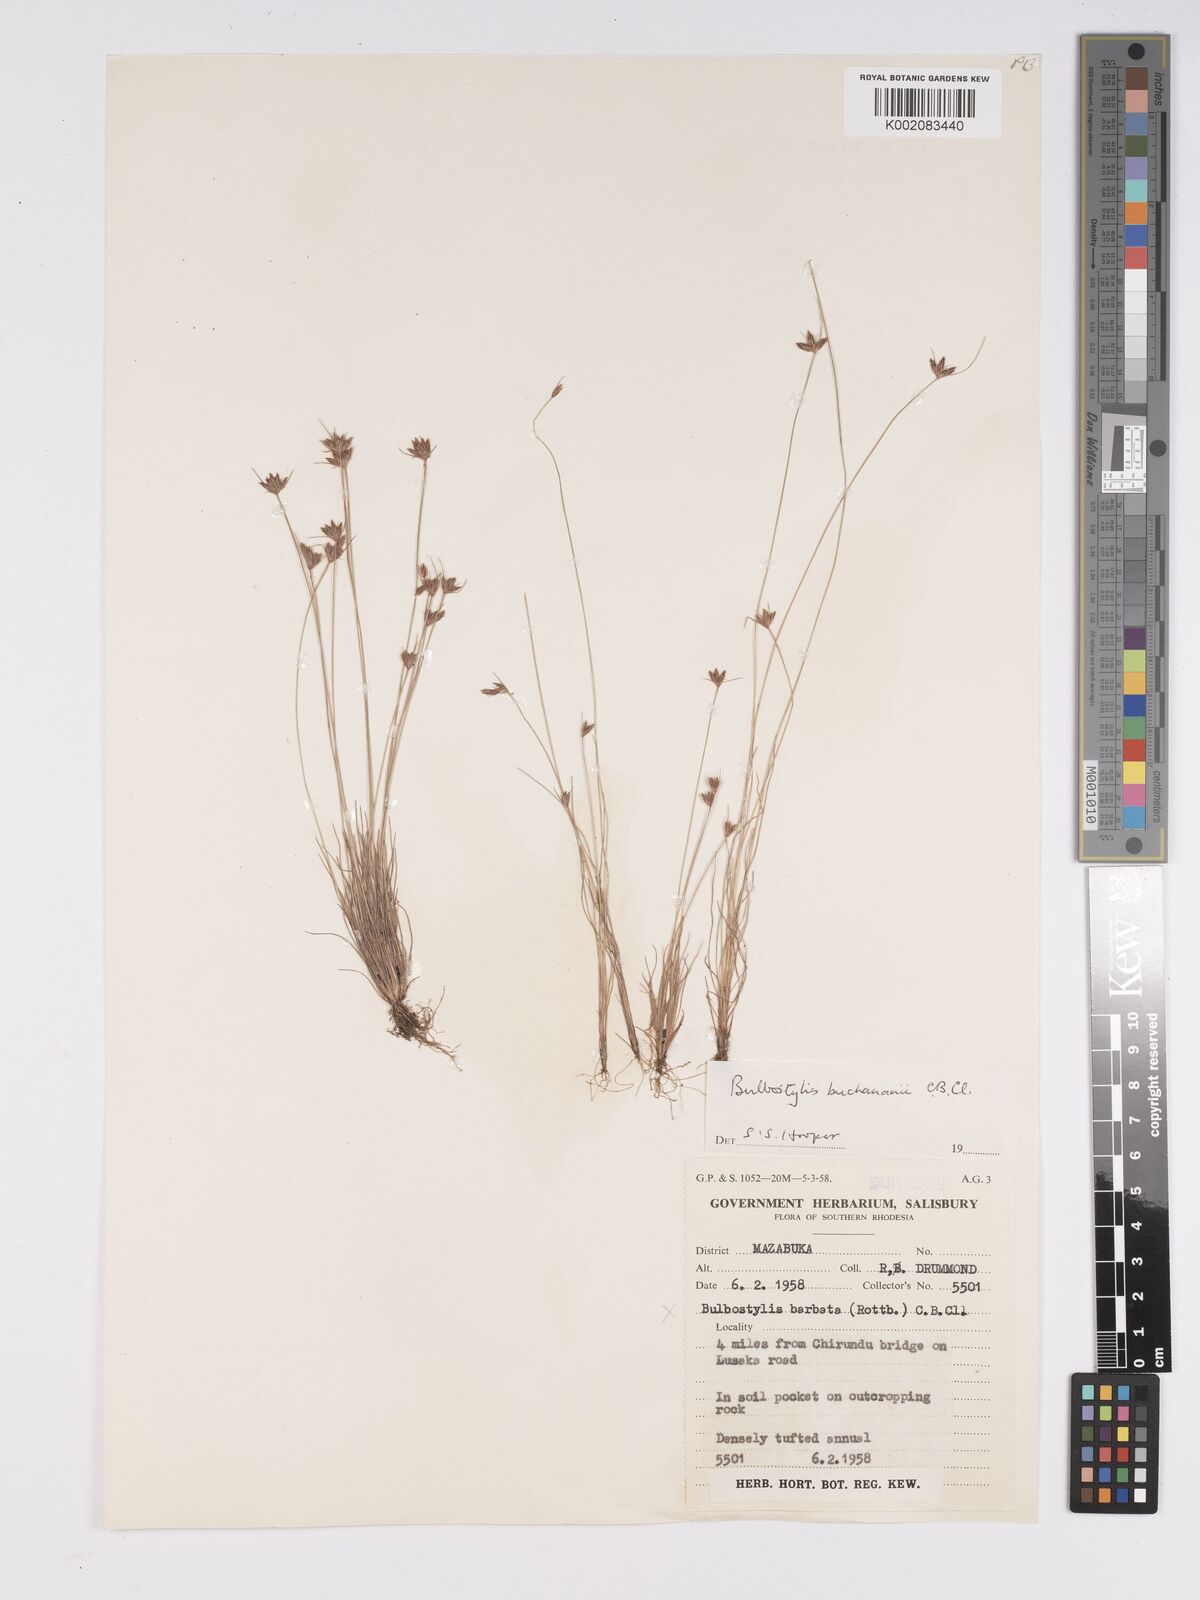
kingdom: Plantae
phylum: Tracheophyta
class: Liliopsida
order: Poales
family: Cyperaceae
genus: Bulbostylis
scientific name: Bulbostylis buchananii
